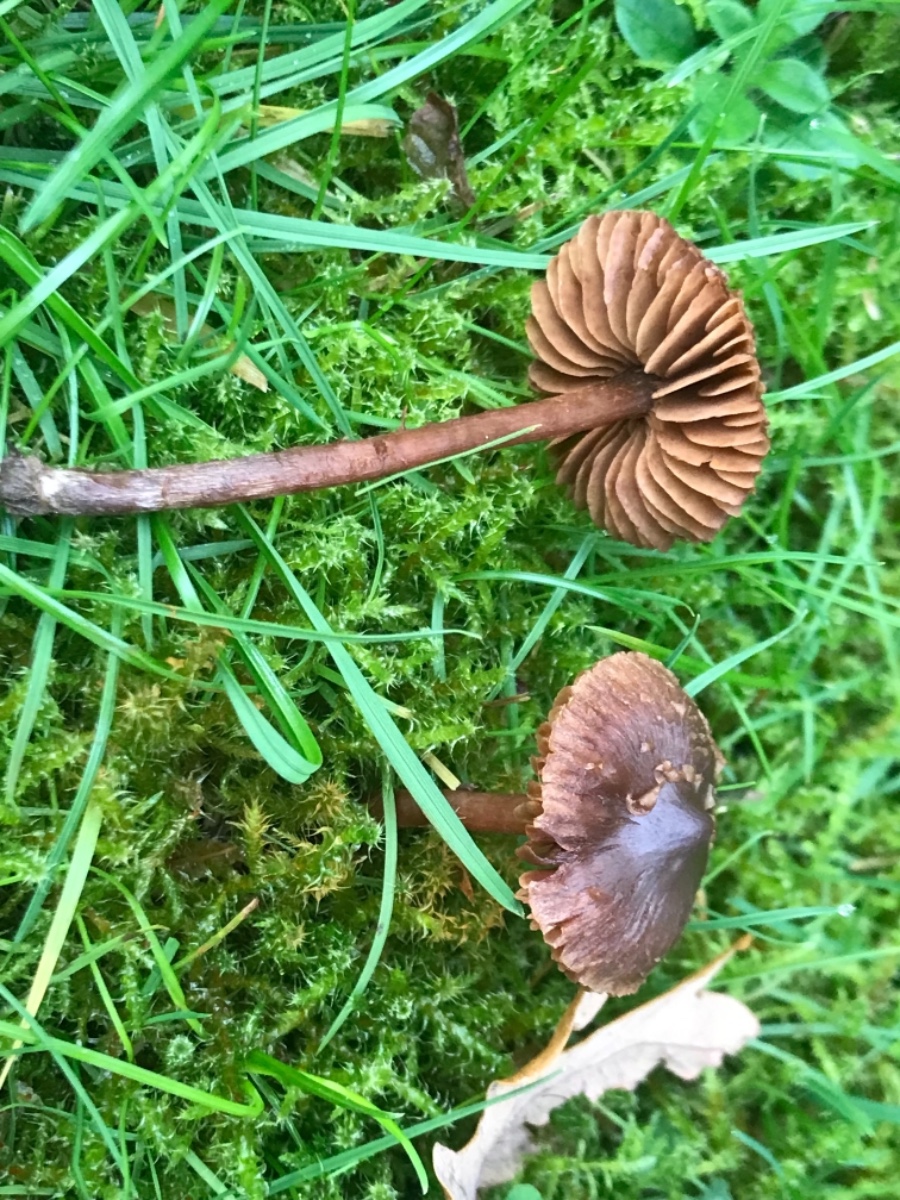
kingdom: Fungi
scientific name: Fungi
